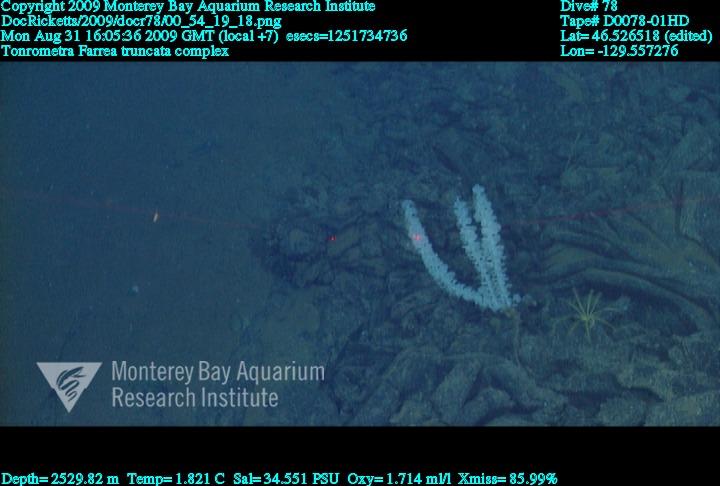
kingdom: Animalia
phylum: Porifera
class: Hexactinellida
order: Sceptrulophora
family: Farreidae
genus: Farrea
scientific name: Farrea truncata
